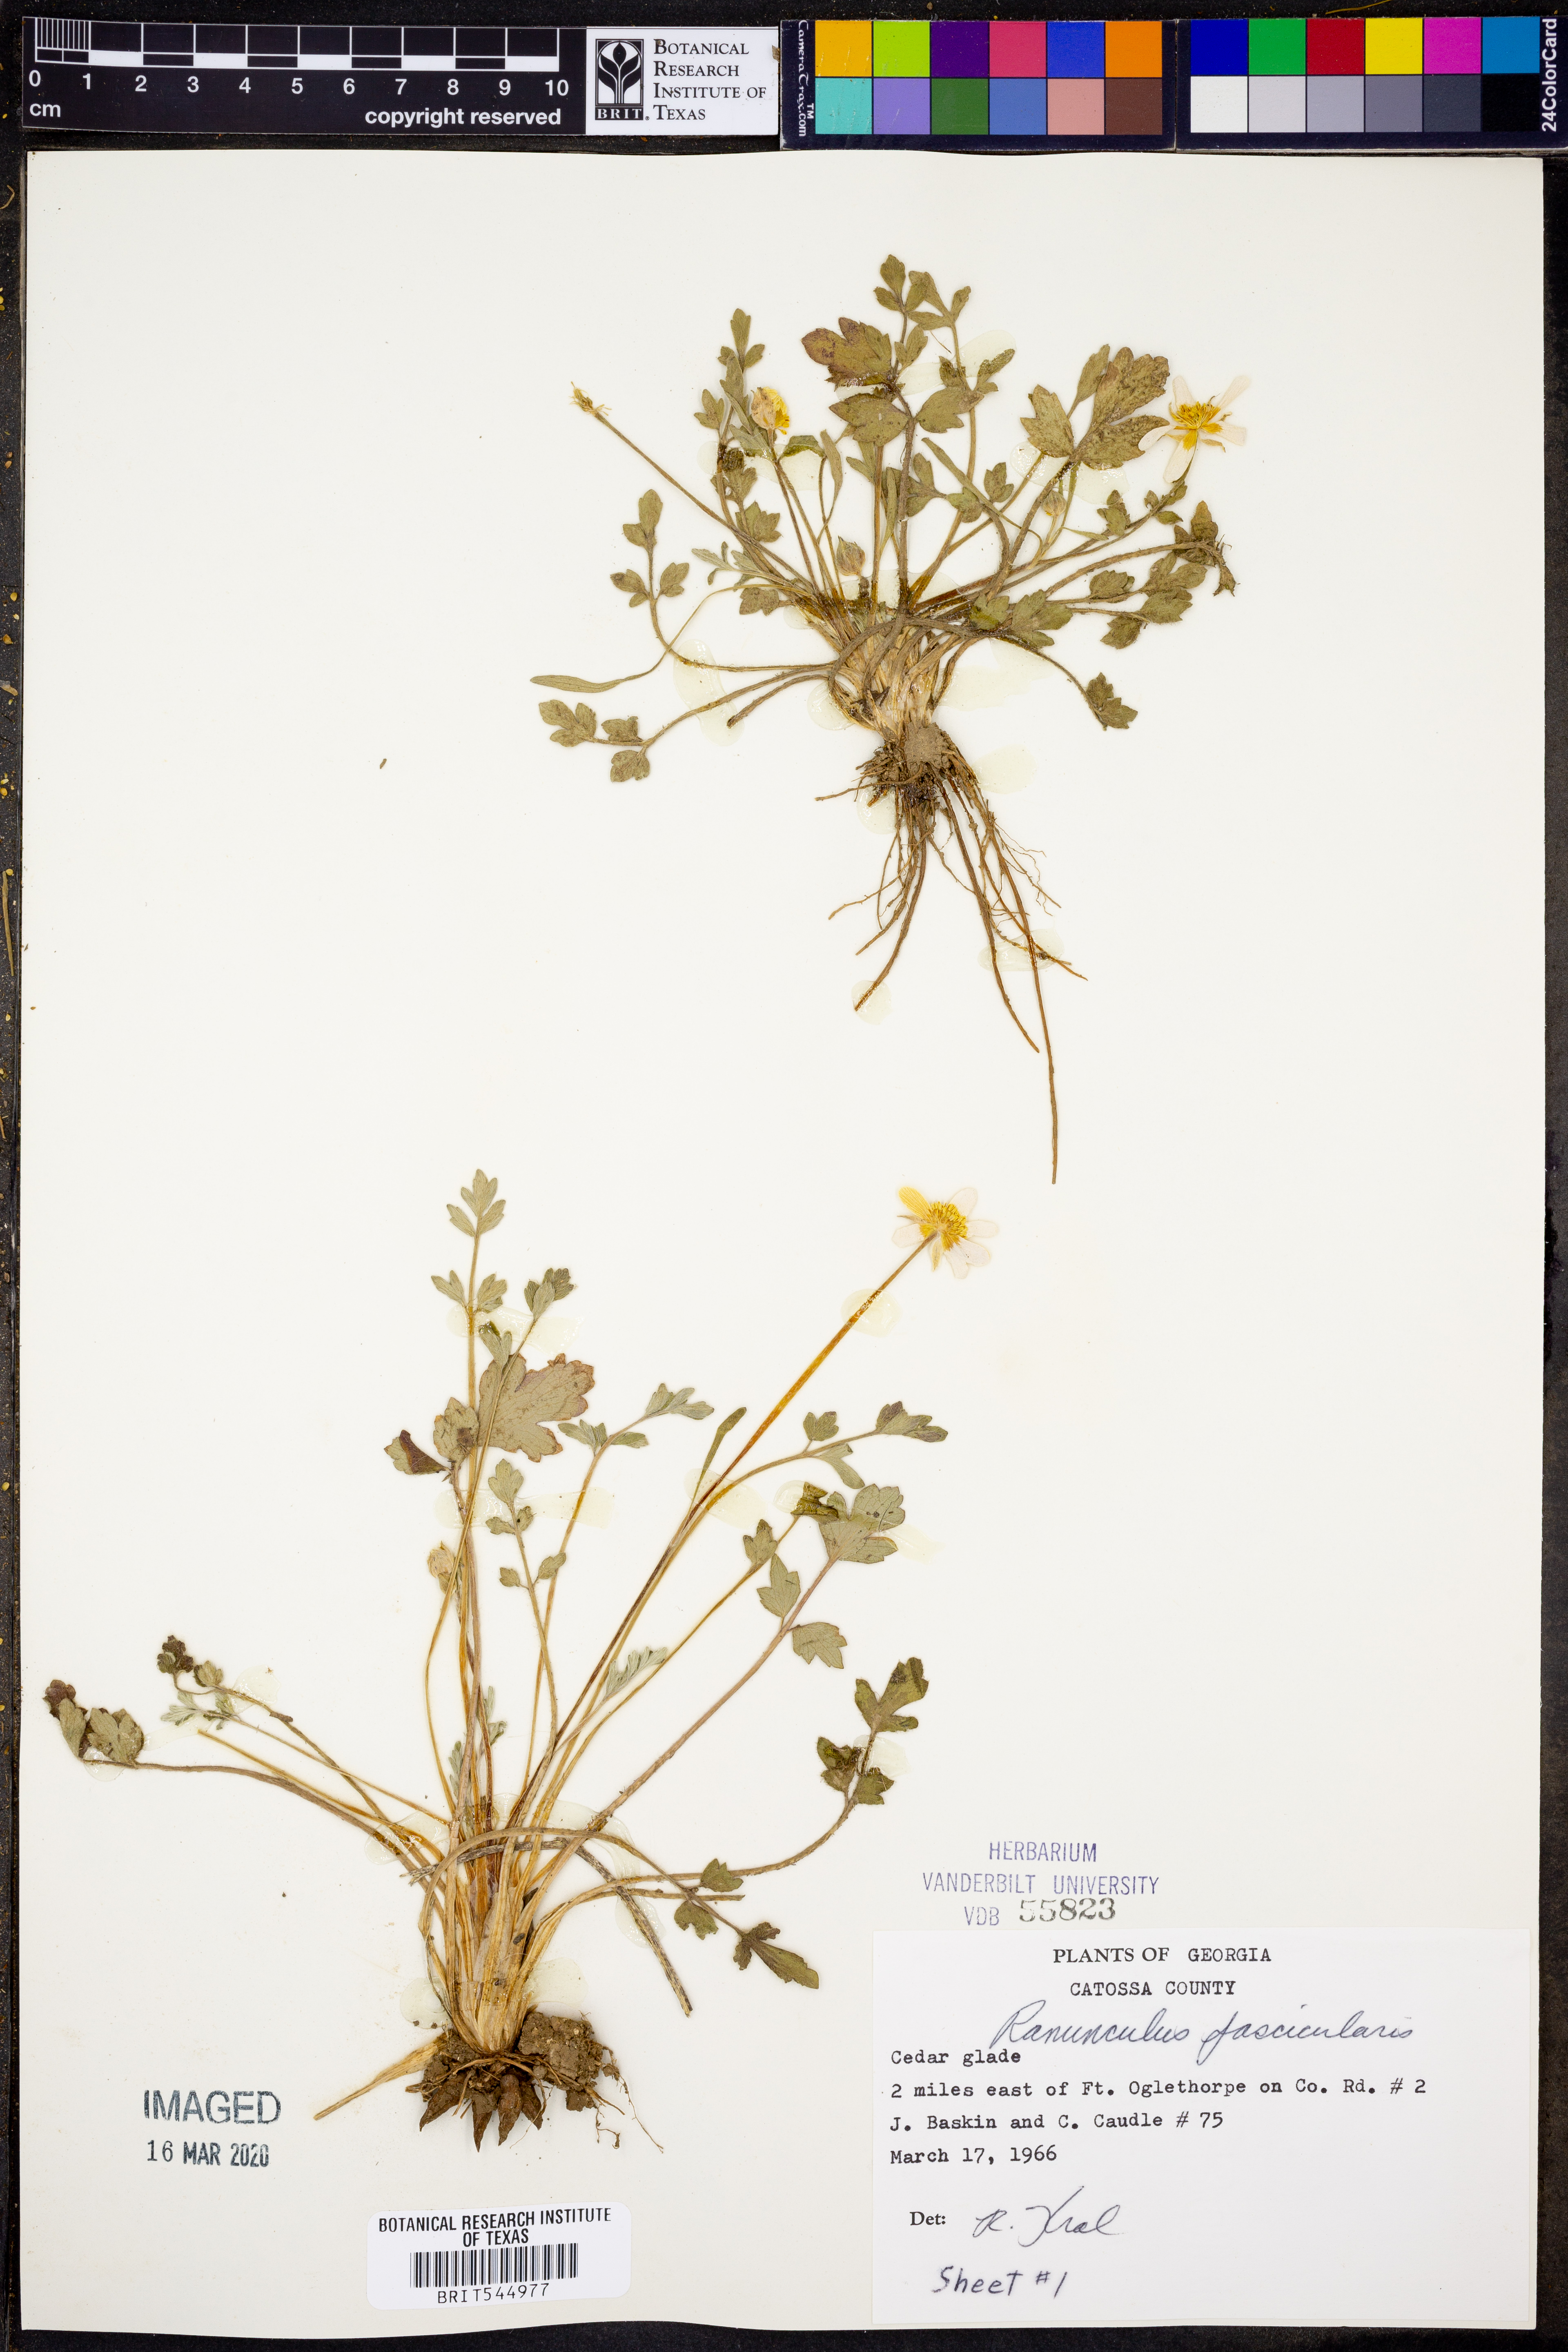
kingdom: Plantae
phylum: Tracheophyta
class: Magnoliopsida
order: Ranunculales
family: Ranunculaceae
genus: Ranunculus
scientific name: Ranunculus fascicularis
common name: Early buttercup
